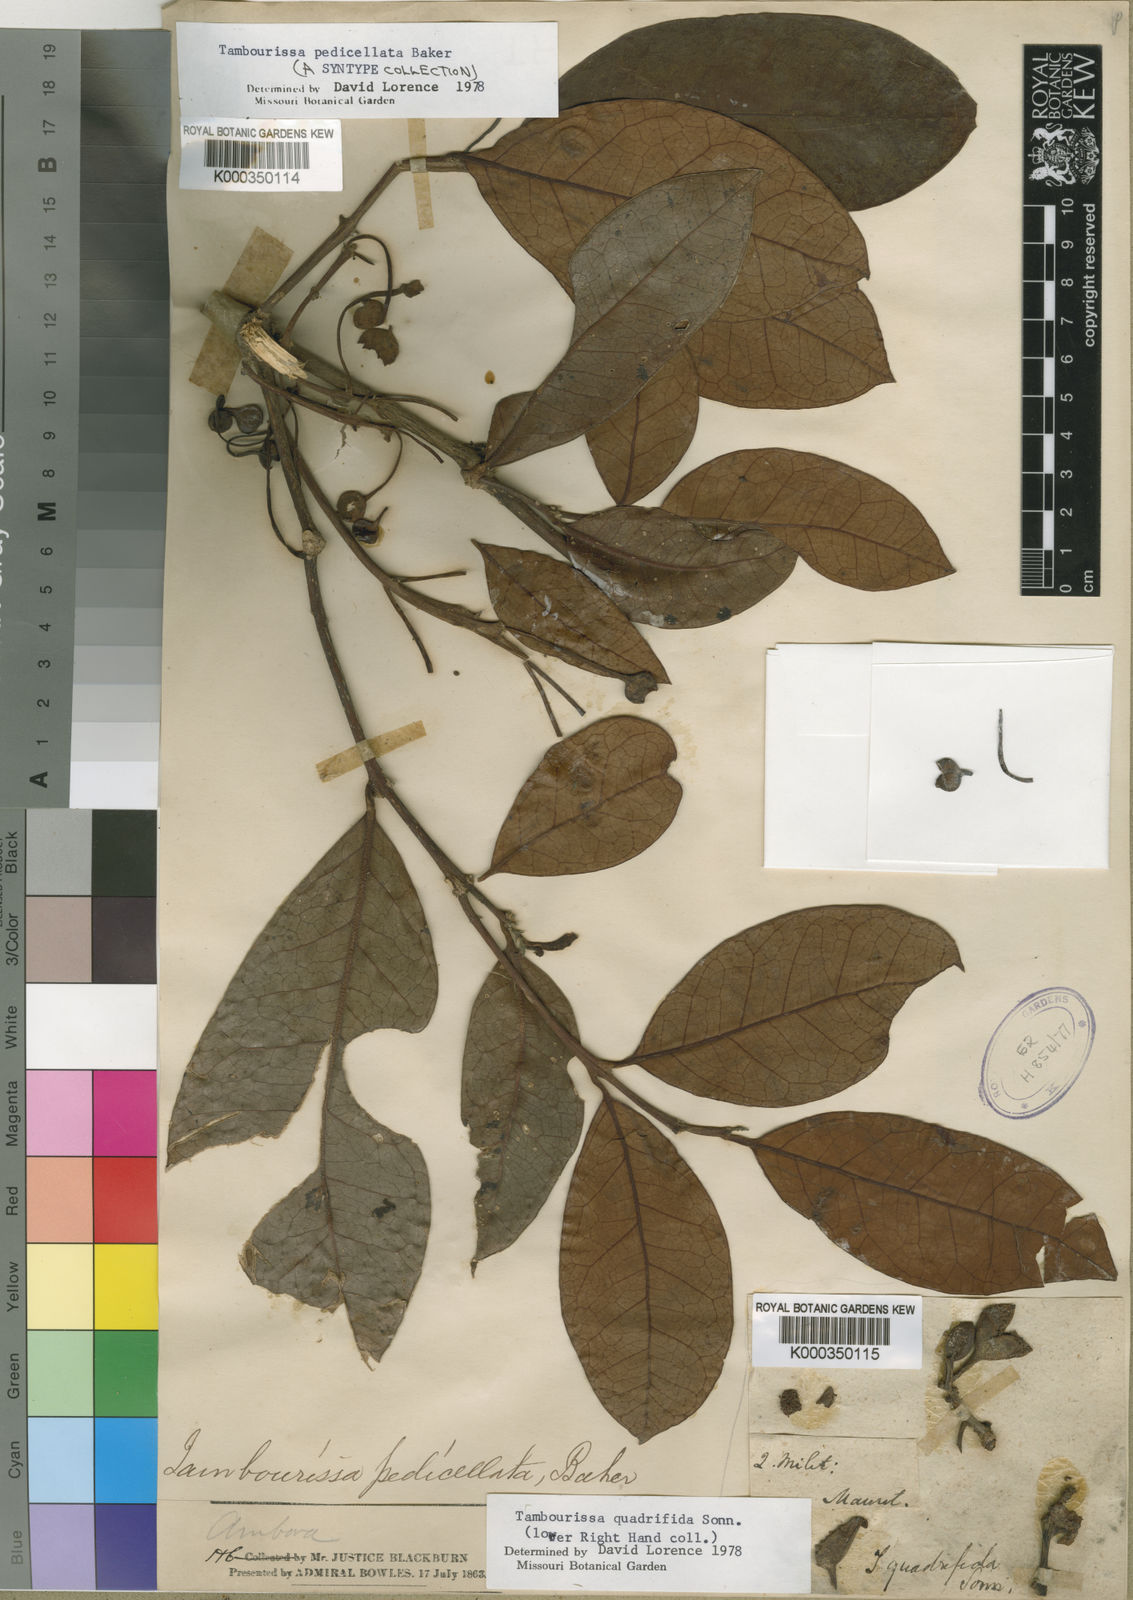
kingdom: Plantae
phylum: Tracheophyta
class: Magnoliopsida
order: Laurales
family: Monimiaceae
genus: Tambourissa
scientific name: Tambourissa pedicellata
